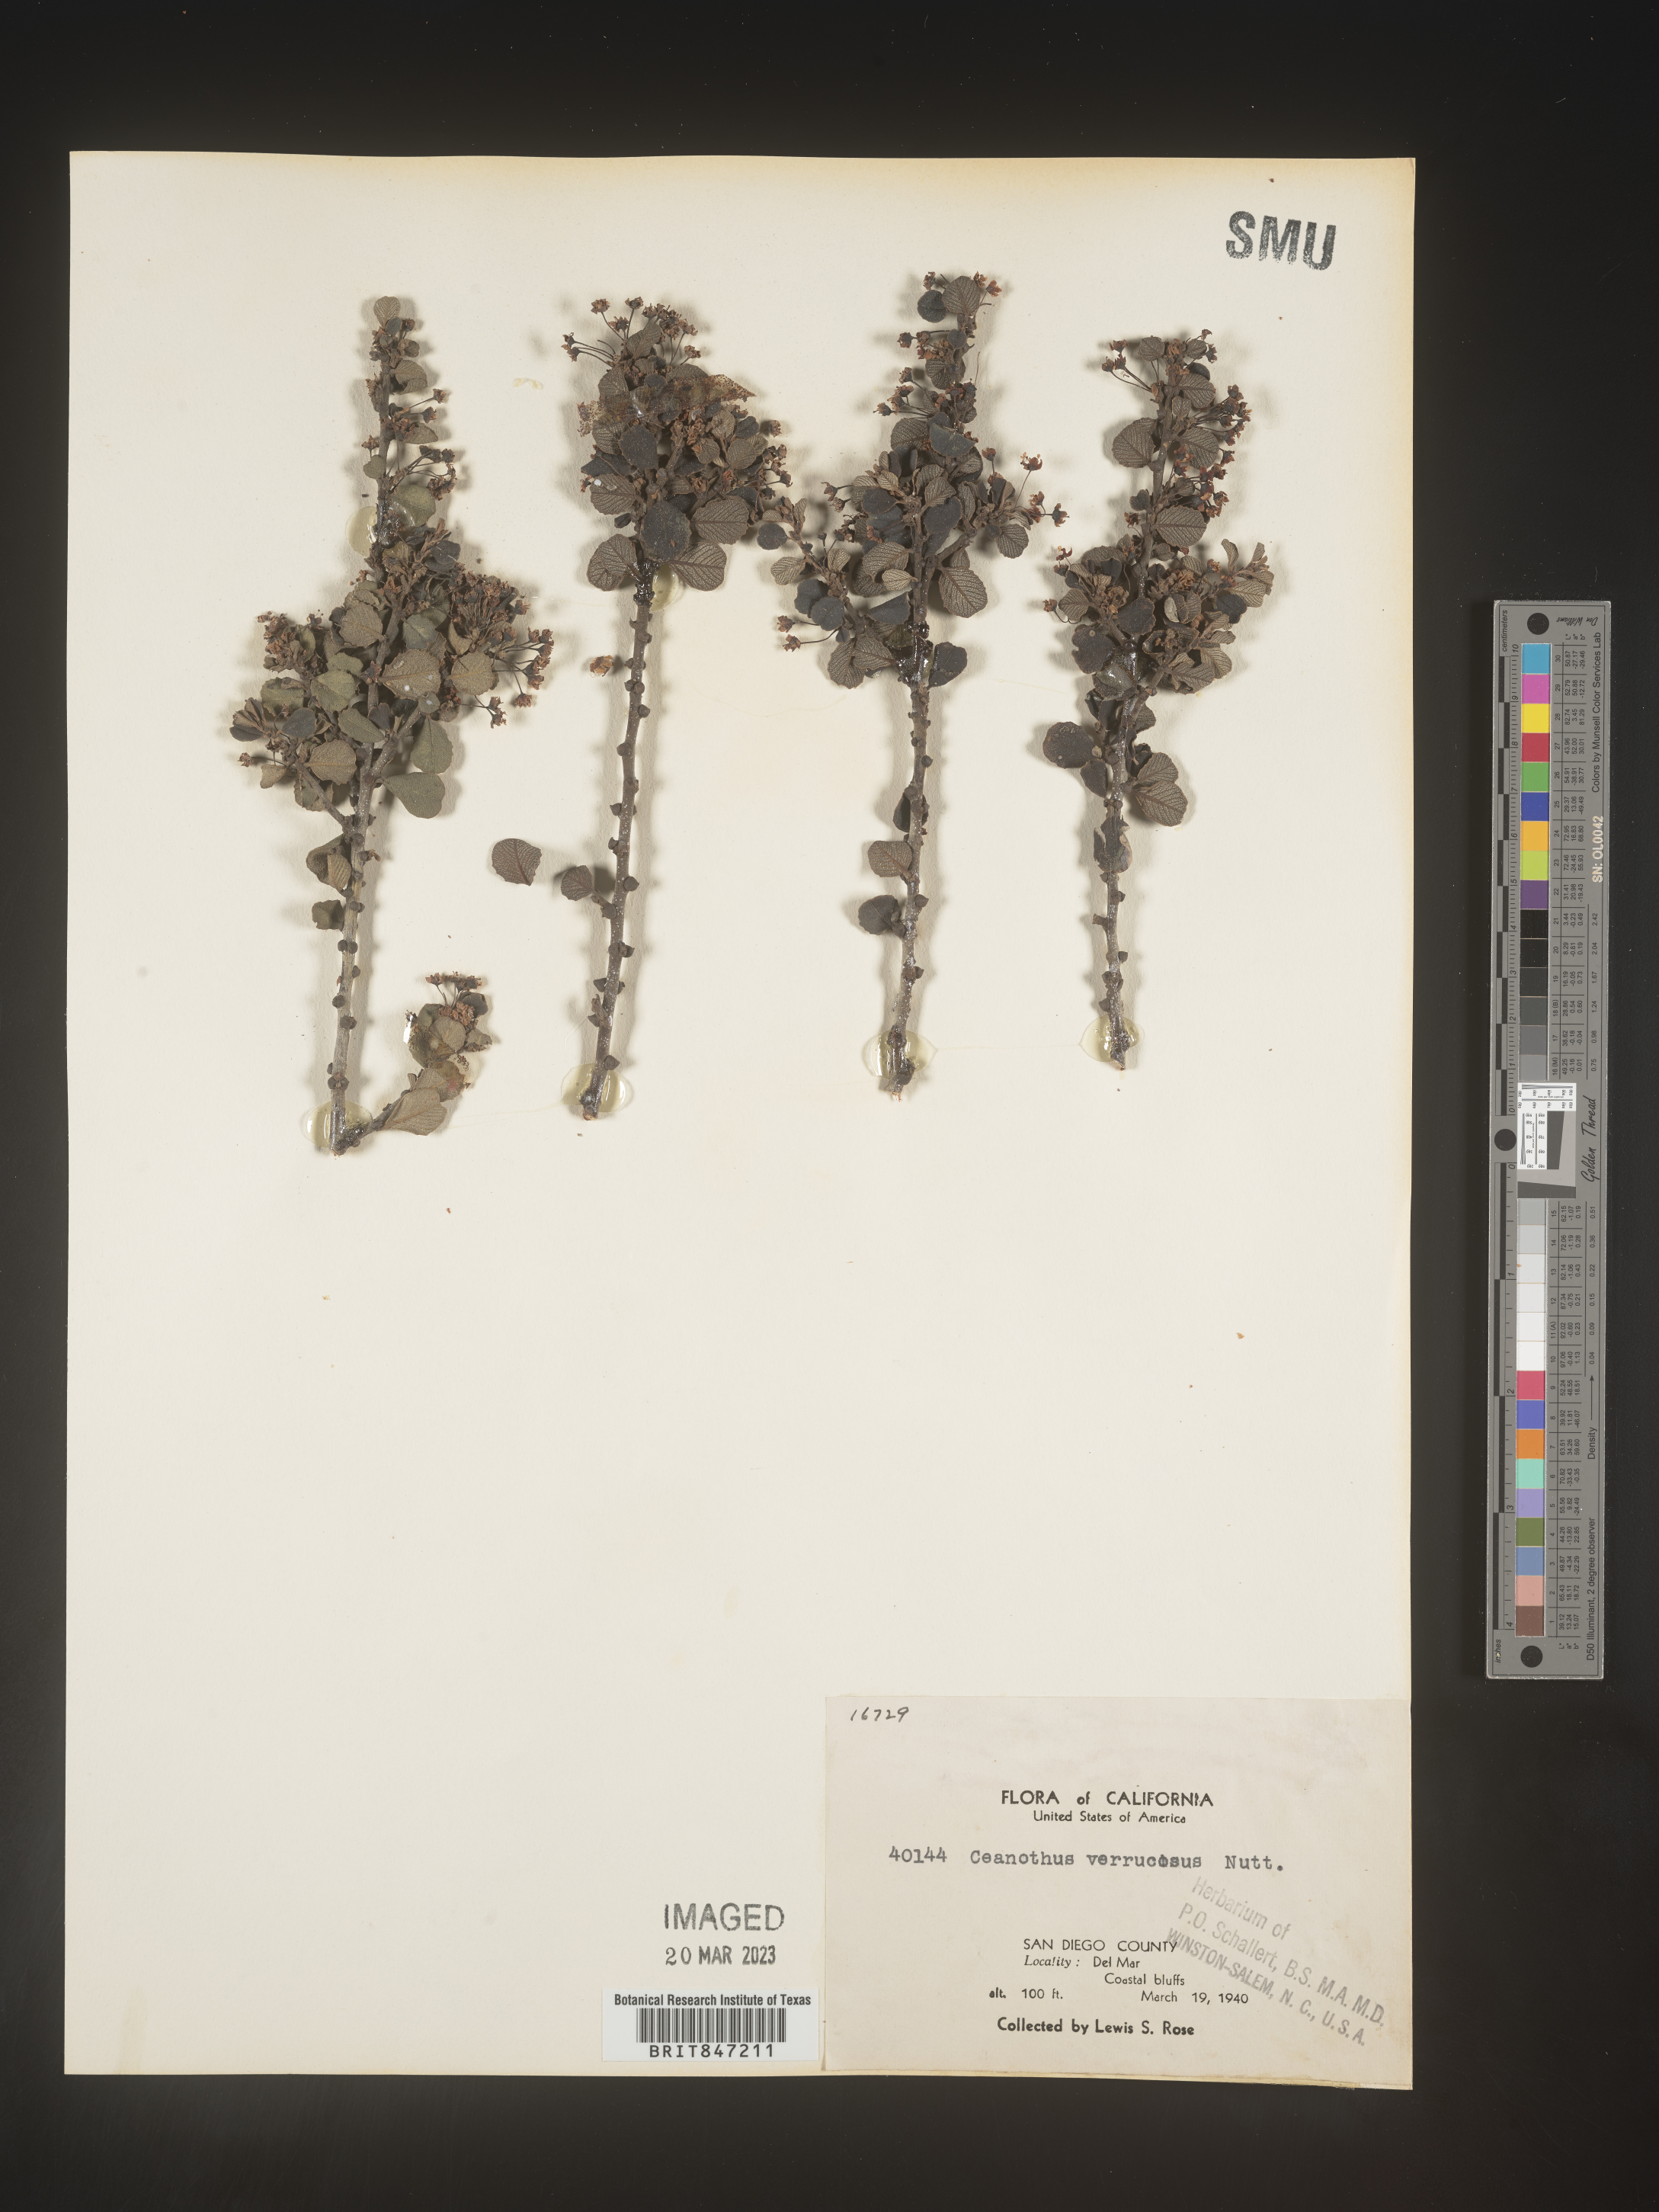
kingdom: Plantae
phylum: Tracheophyta
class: Magnoliopsida
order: Rosales
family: Rhamnaceae
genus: Ceanothus
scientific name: Ceanothus
